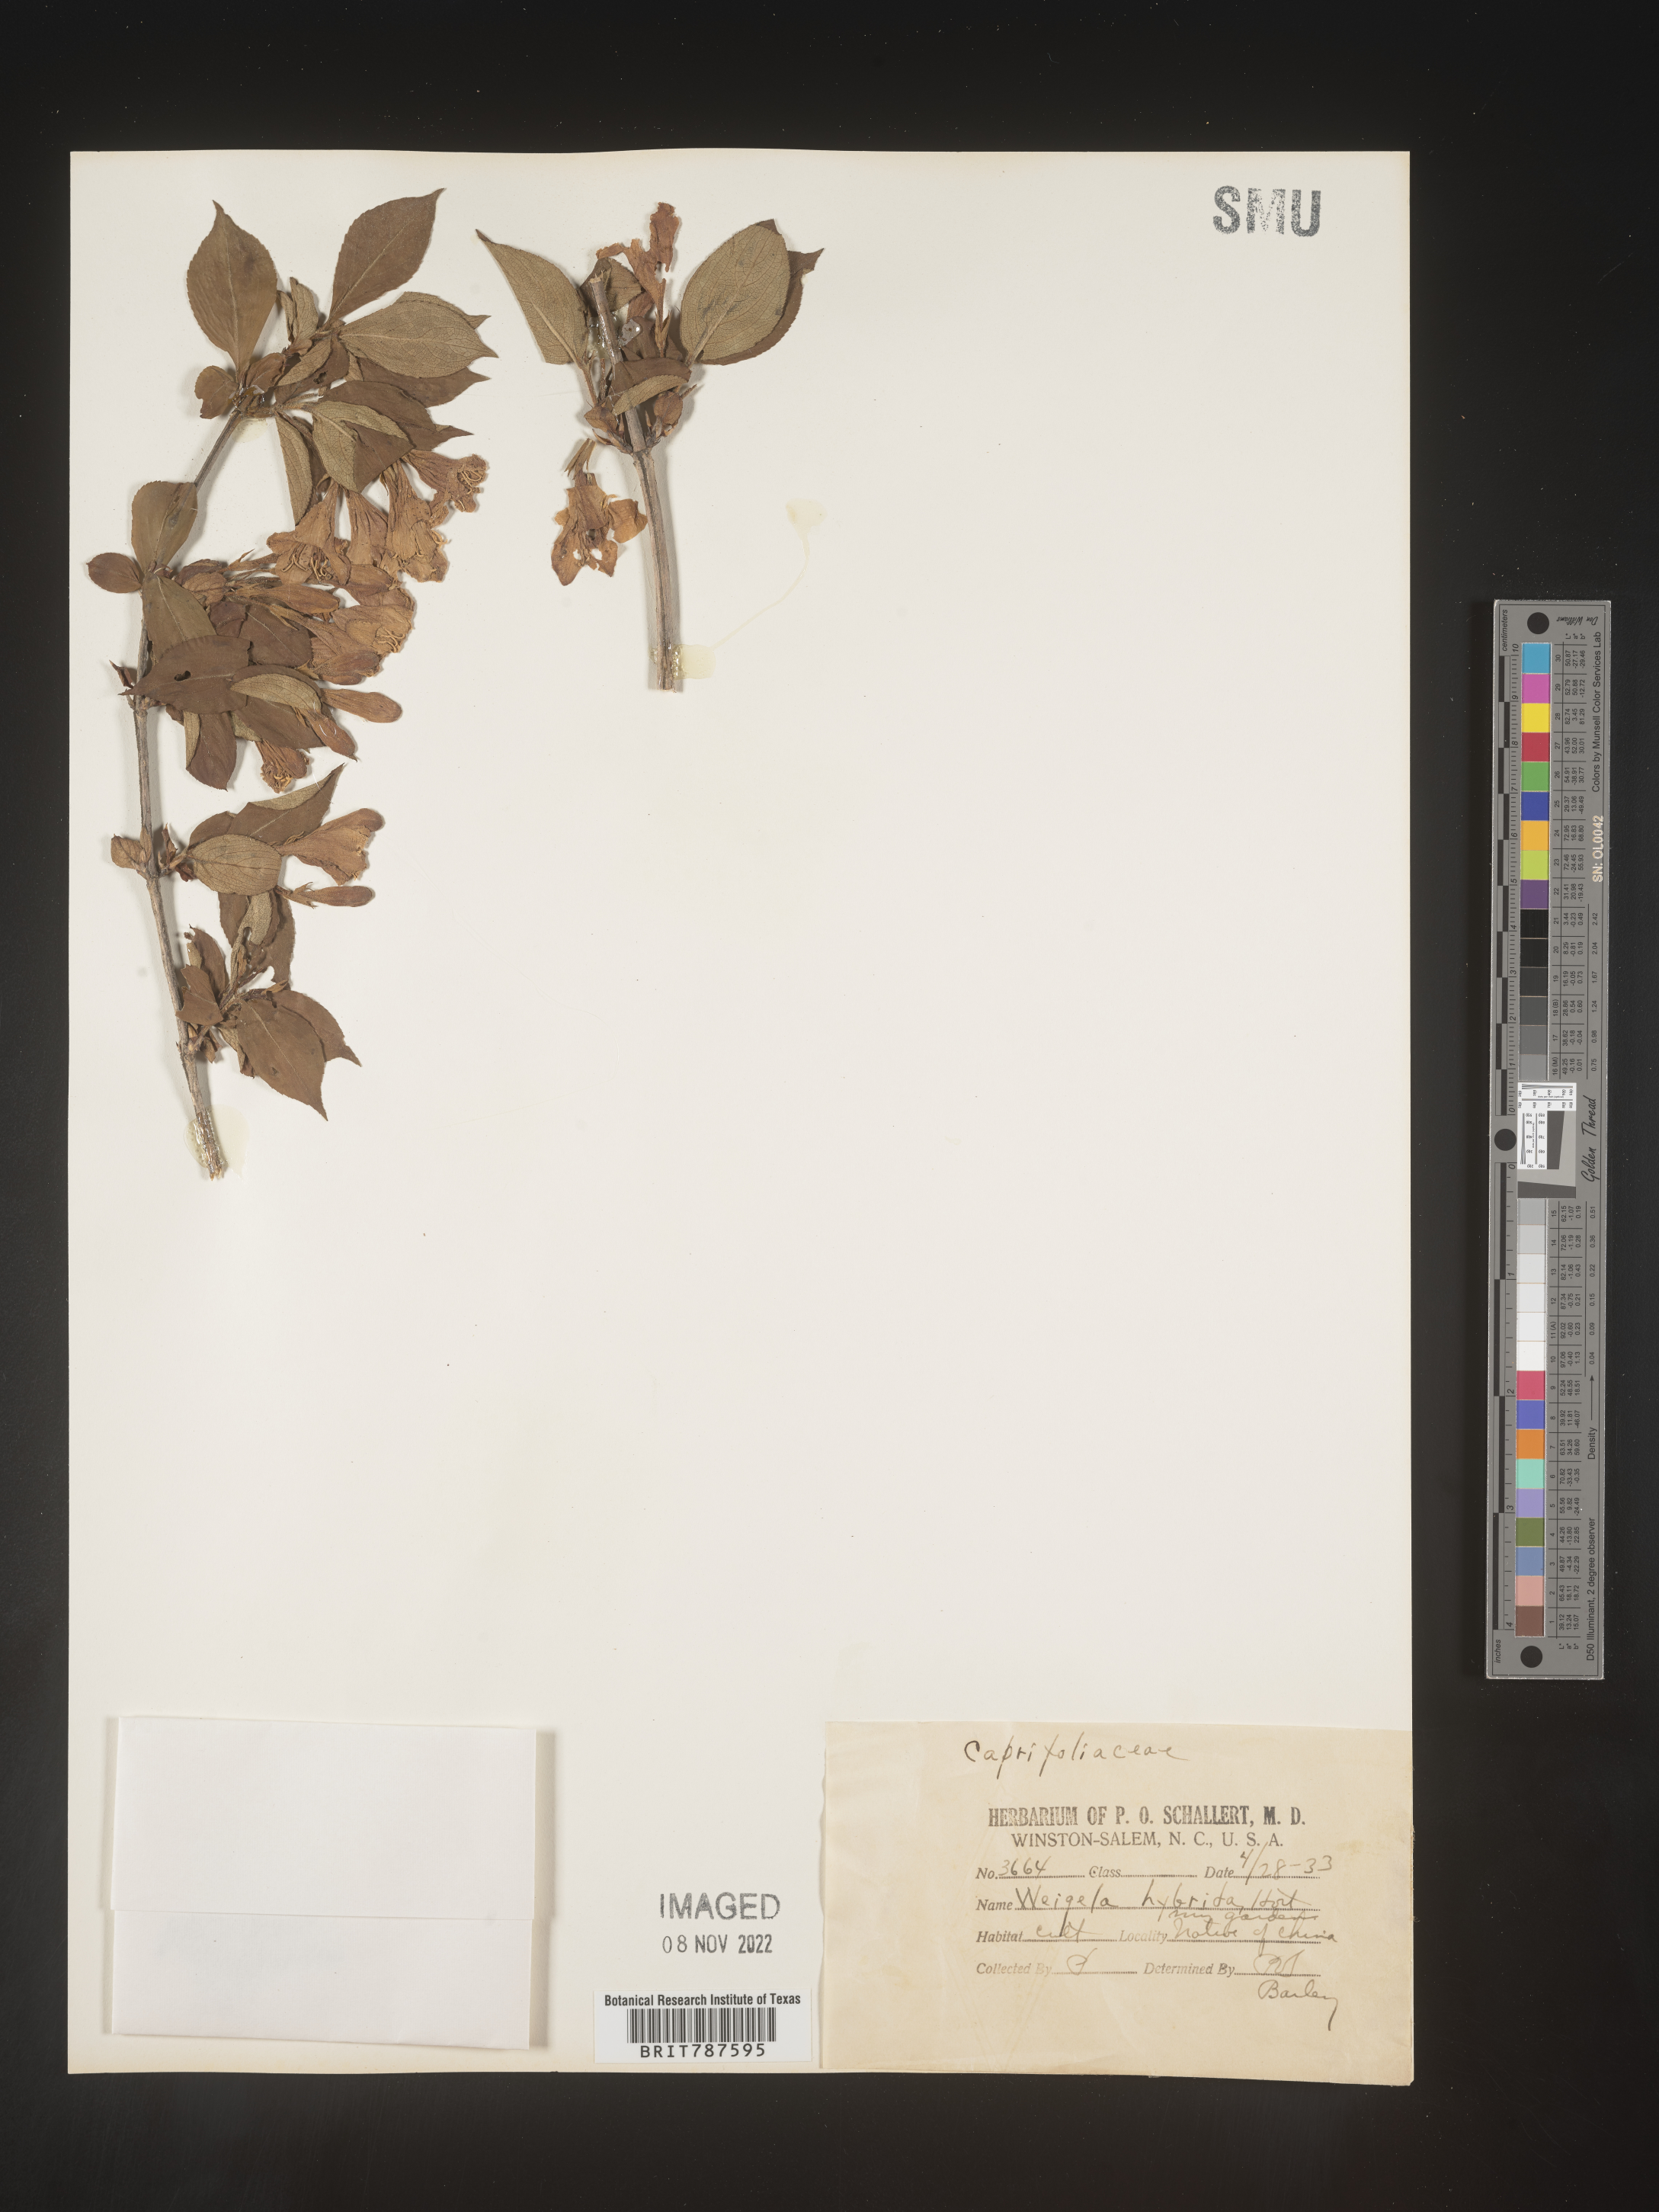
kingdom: Plantae
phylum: Tracheophyta
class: Magnoliopsida
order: Dipsacales
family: Caprifoliaceae
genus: Weigela
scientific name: Weigela
